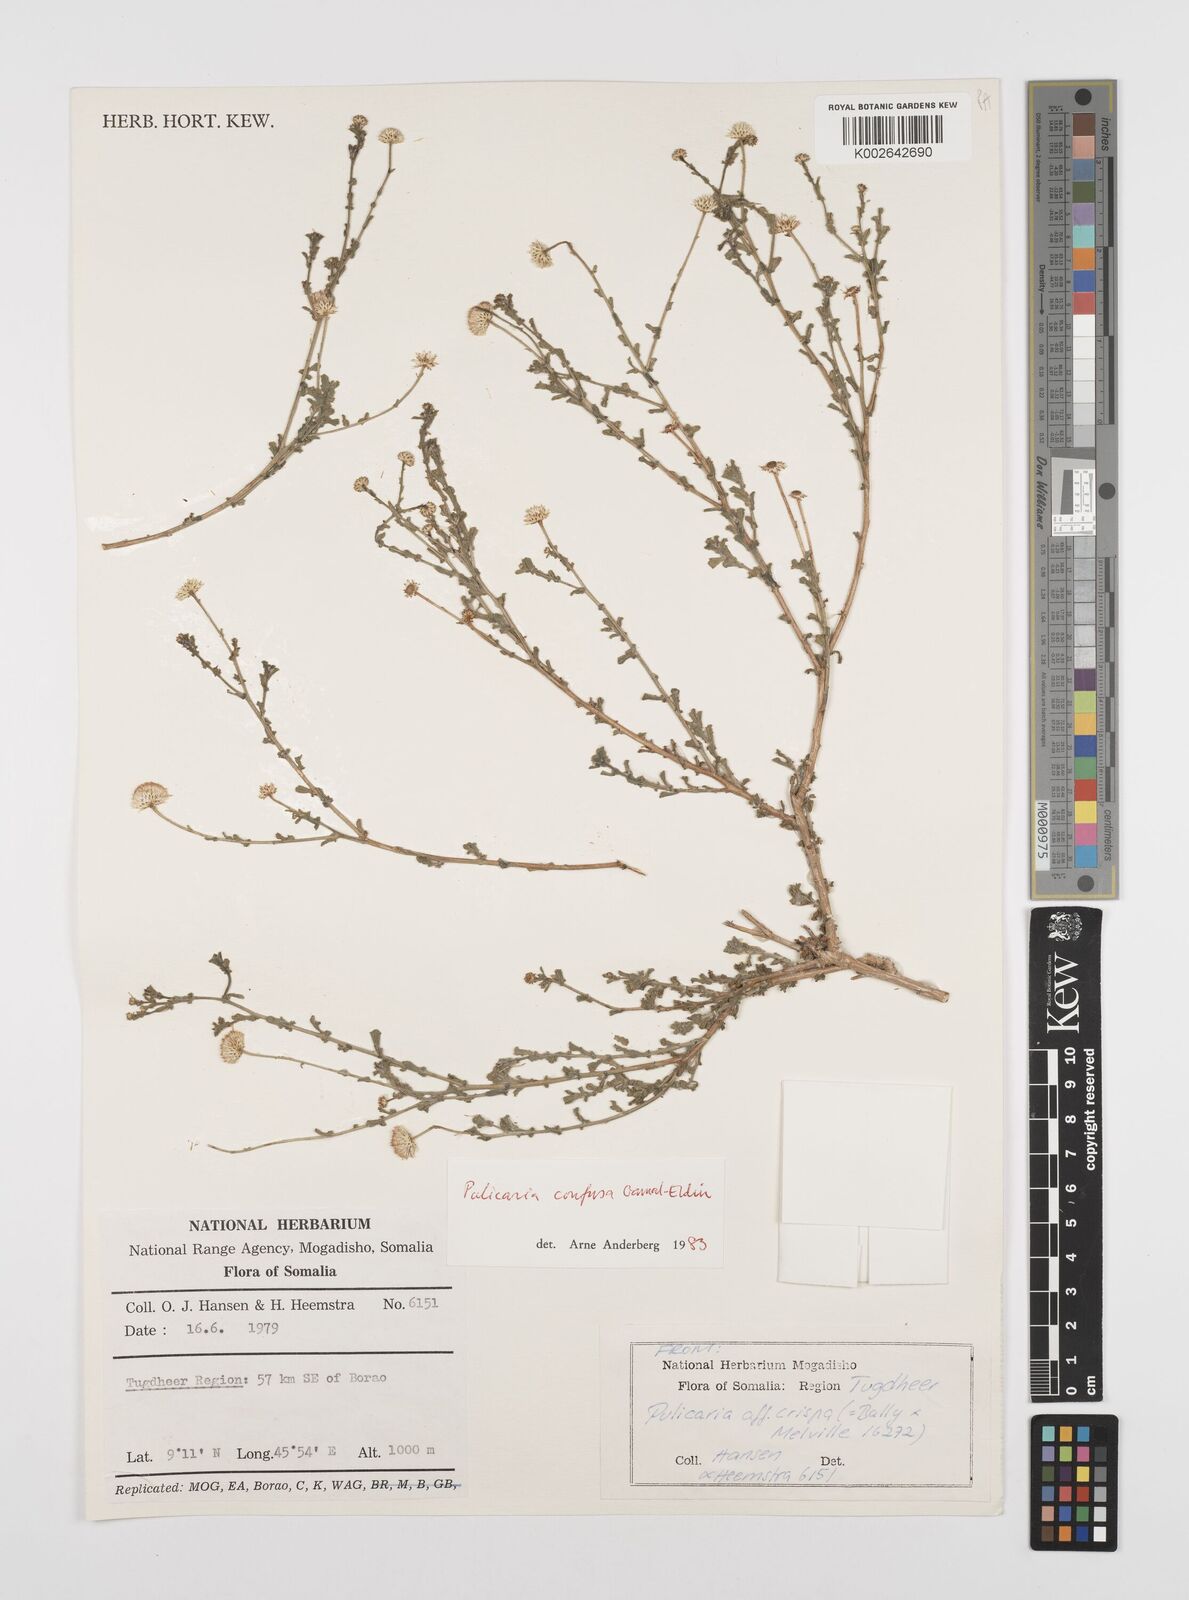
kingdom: Plantae
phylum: Tracheophyta
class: Magnoliopsida
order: Asterales
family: Asteraceae
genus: Pulicaria
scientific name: Pulicaria confusa
